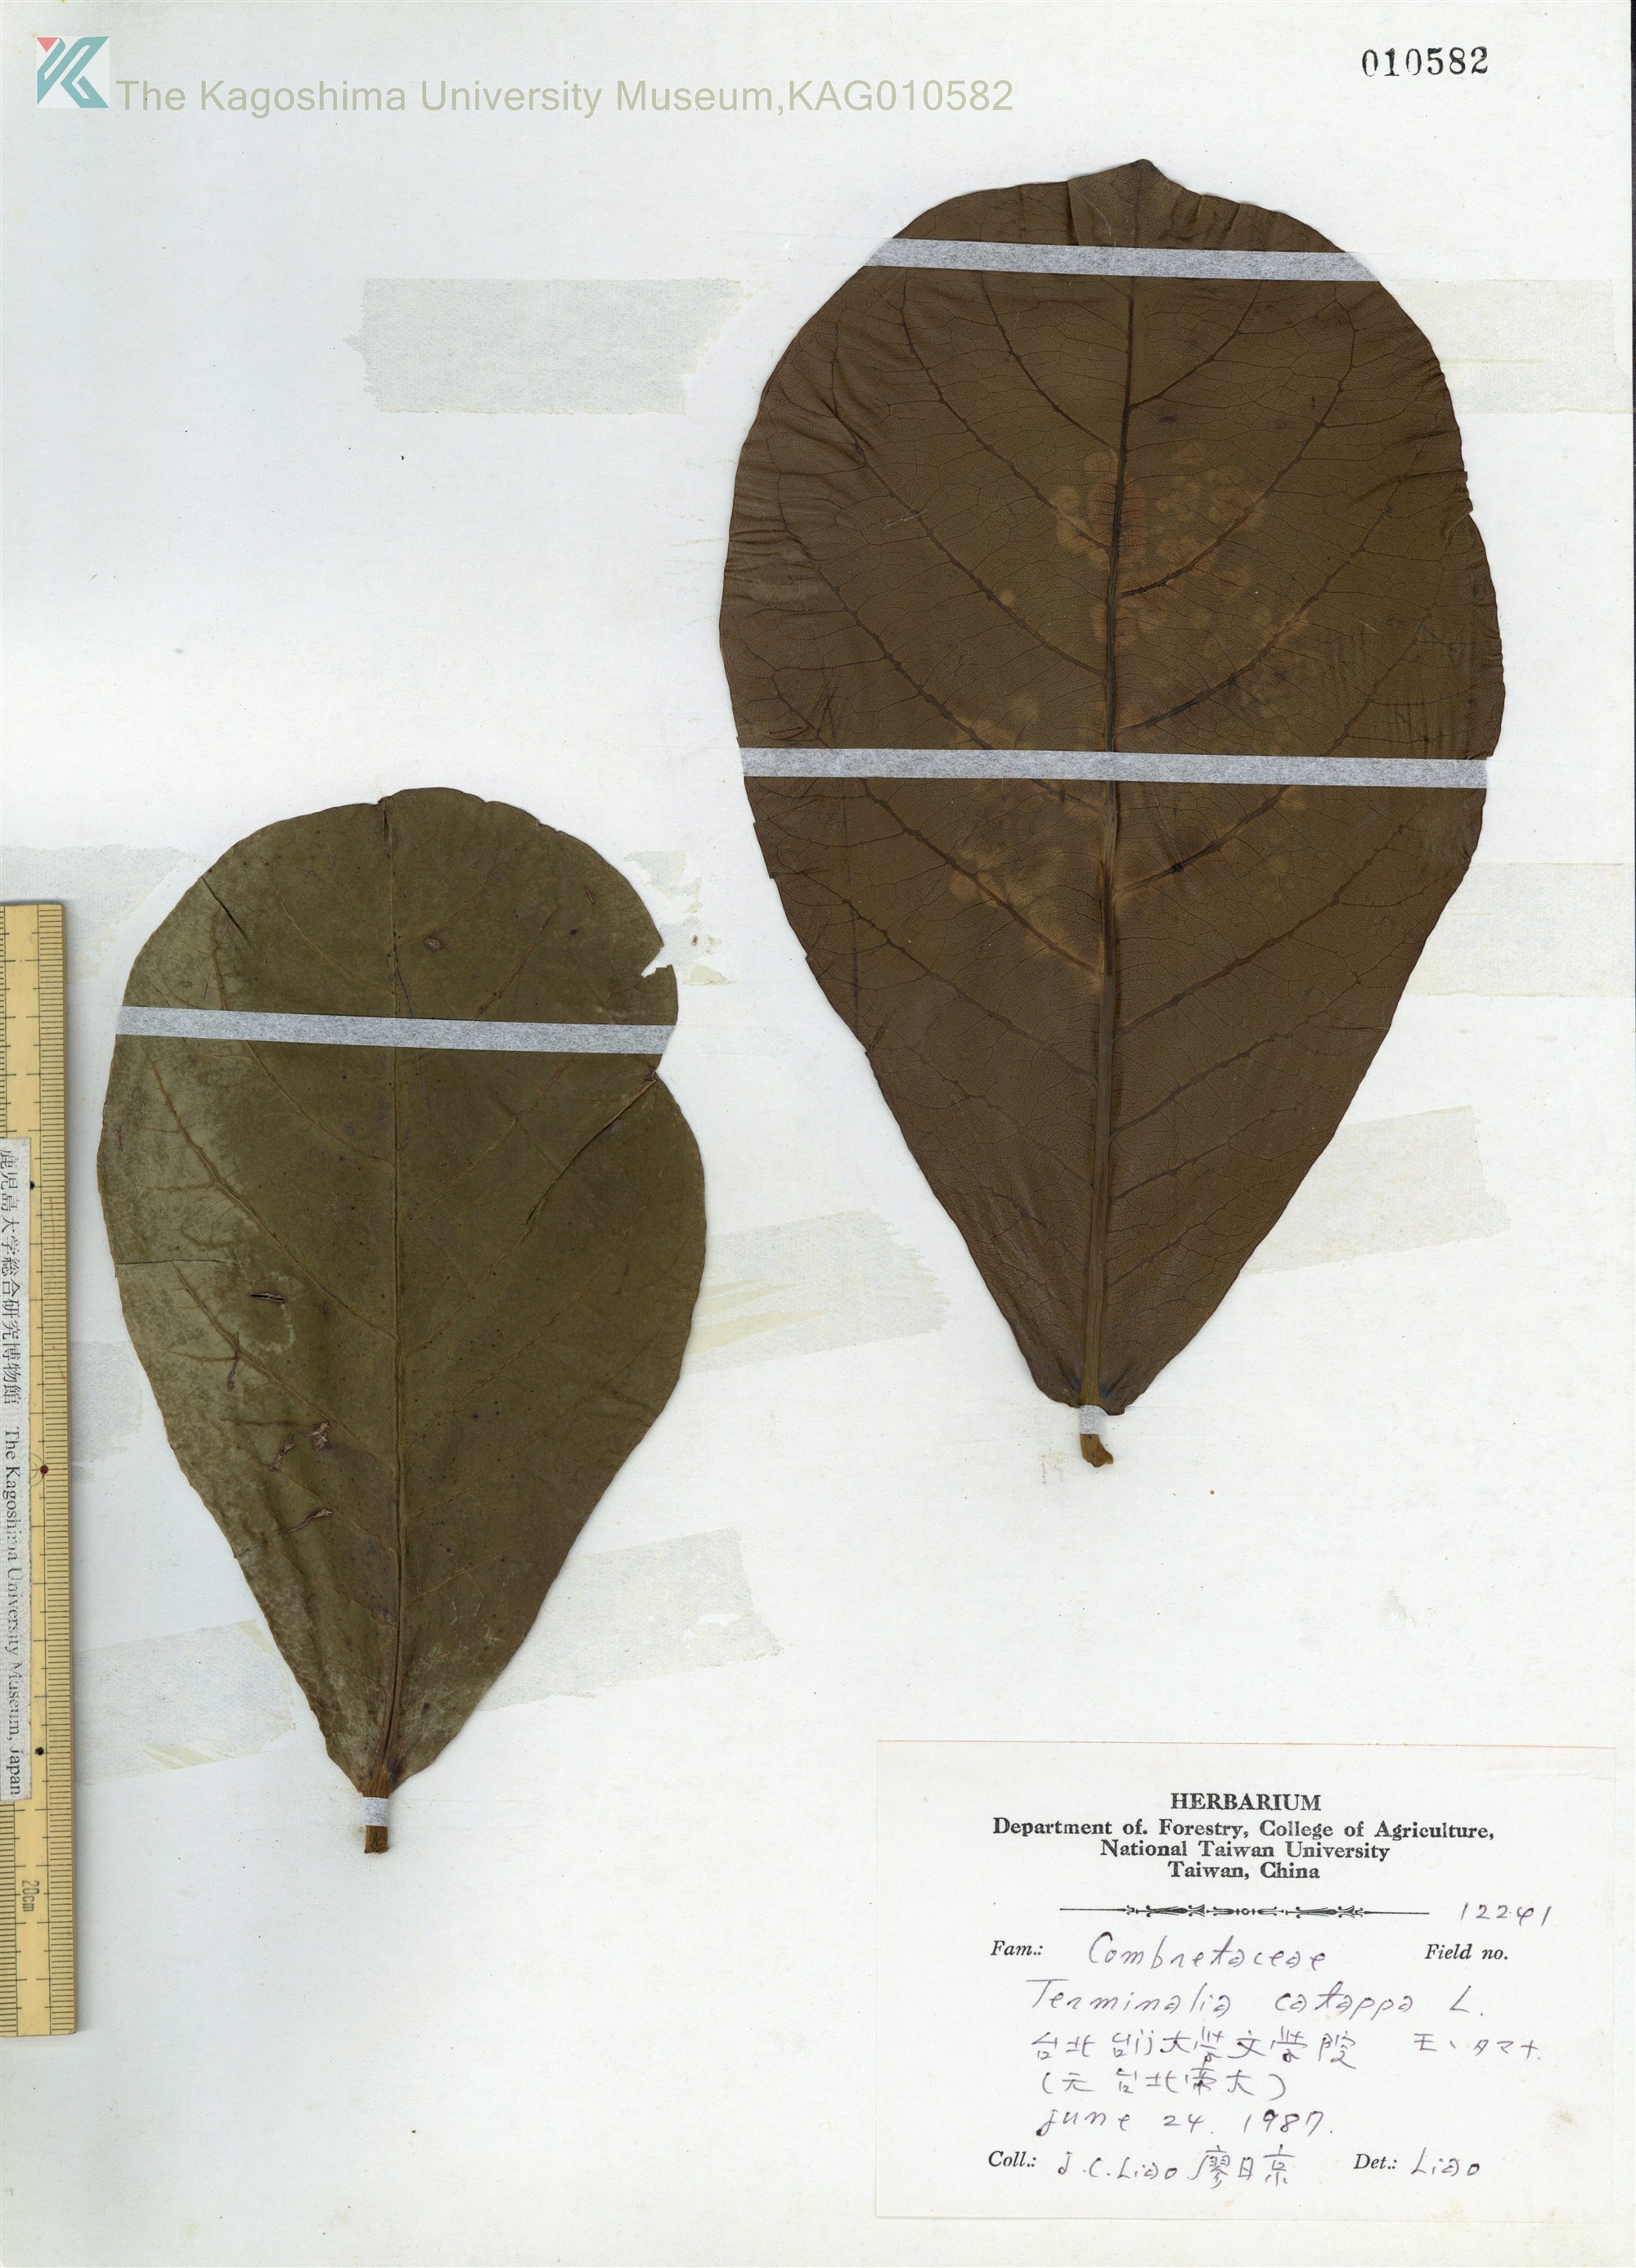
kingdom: Plantae
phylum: Tracheophyta
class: Magnoliopsida
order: Myrtales
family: Combretaceae
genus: Terminalia
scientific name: Terminalia catappa
